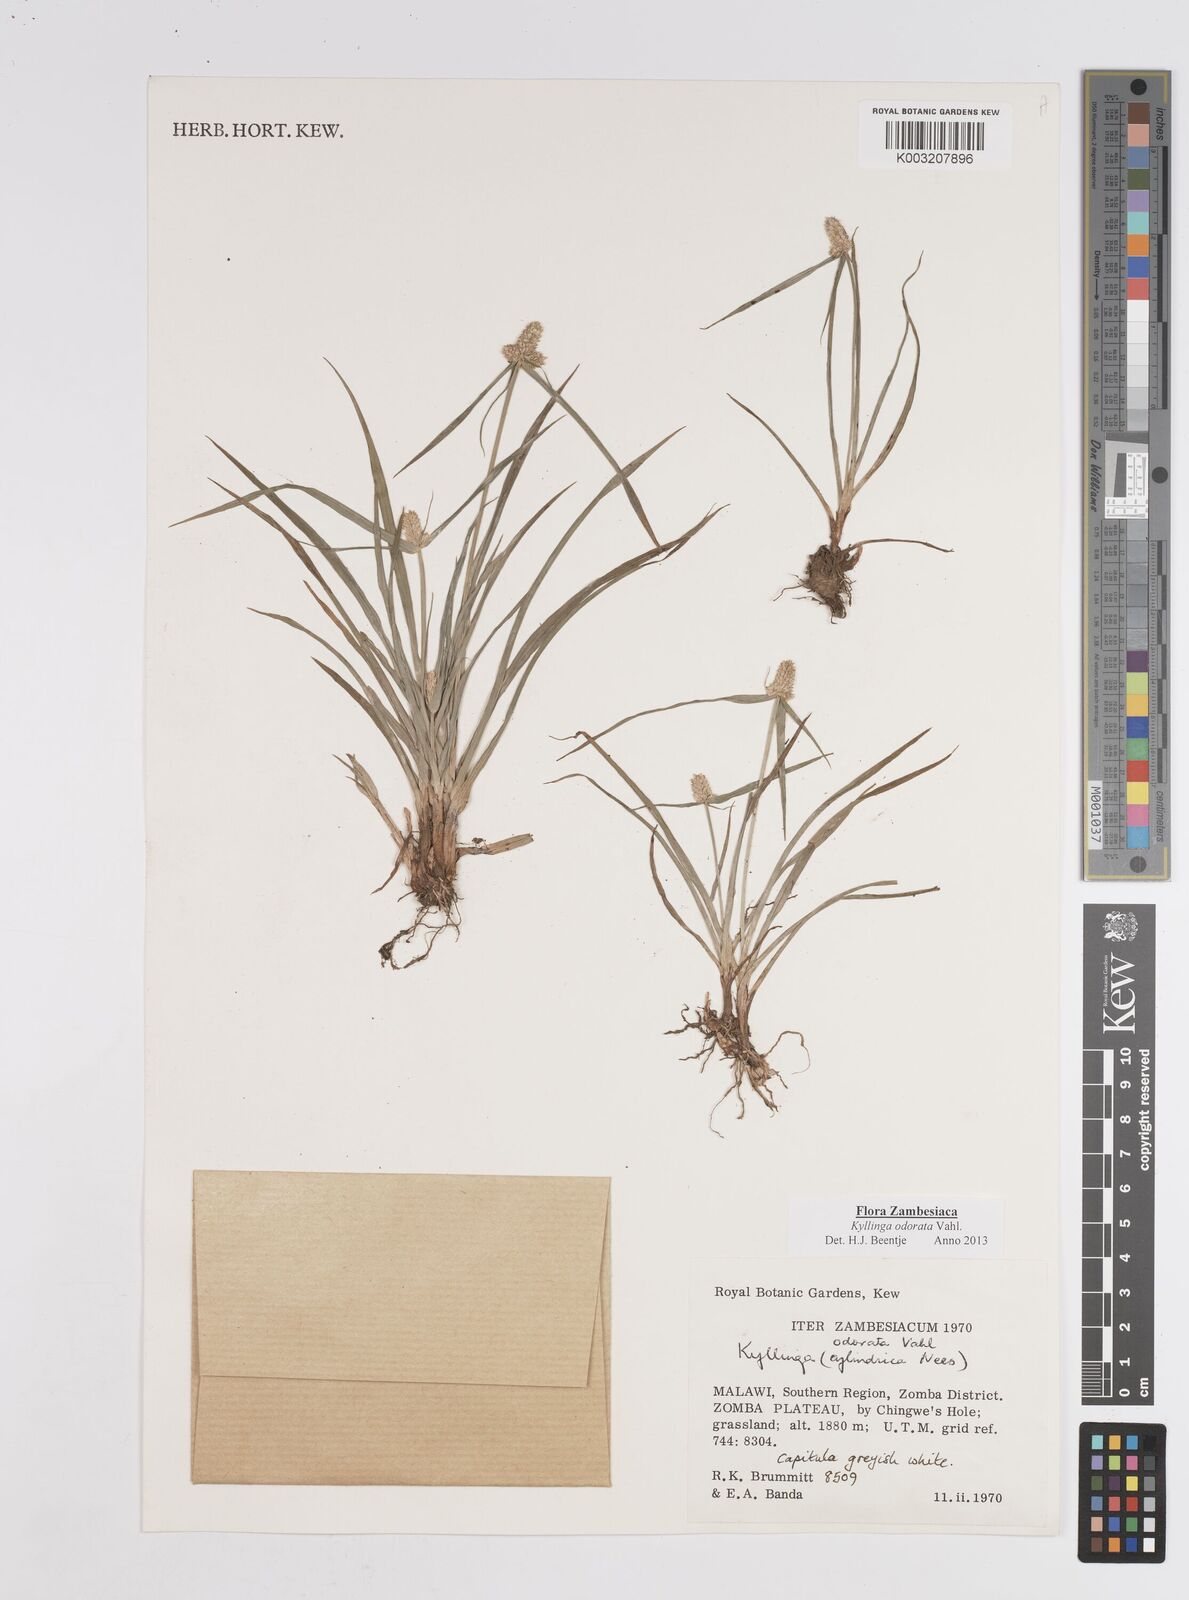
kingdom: Plantae
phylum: Tracheophyta
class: Liliopsida
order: Poales
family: Cyperaceae
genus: Cyperus
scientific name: Cyperus
